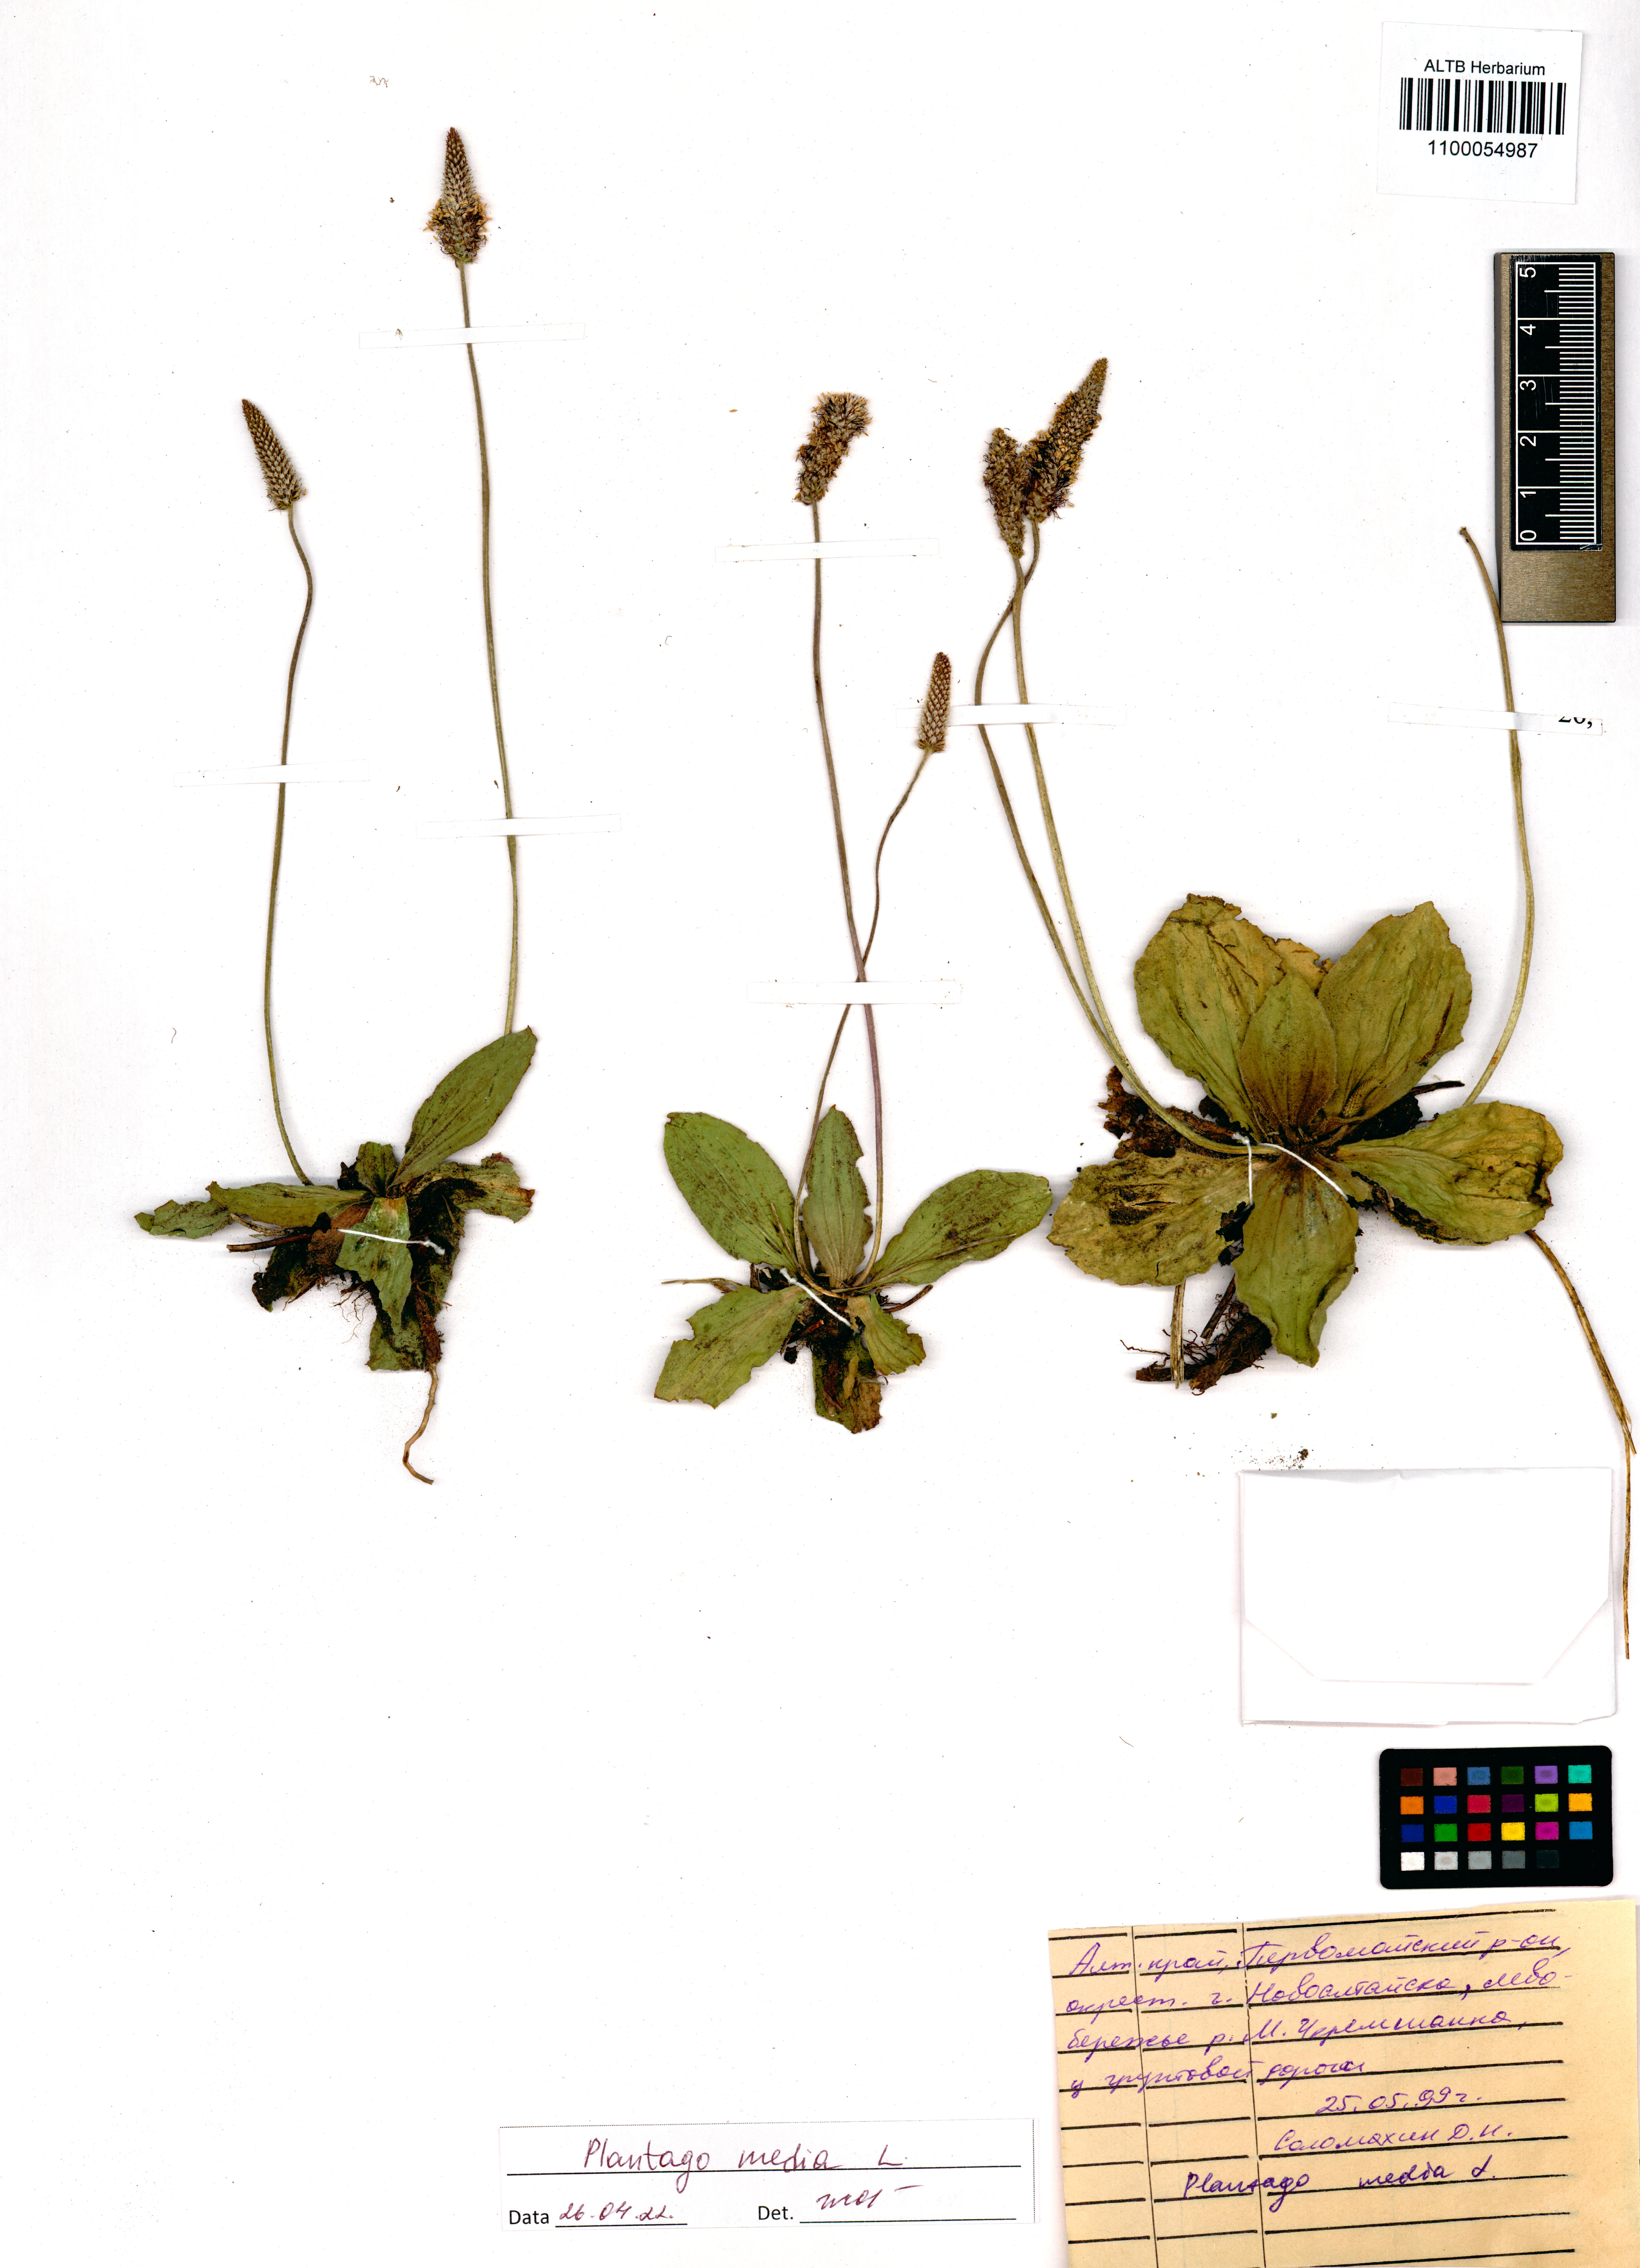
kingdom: Plantae
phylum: Tracheophyta
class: Magnoliopsida
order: Lamiales
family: Plantaginaceae
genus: Plantago
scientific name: Plantago media
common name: Hoary plantain
